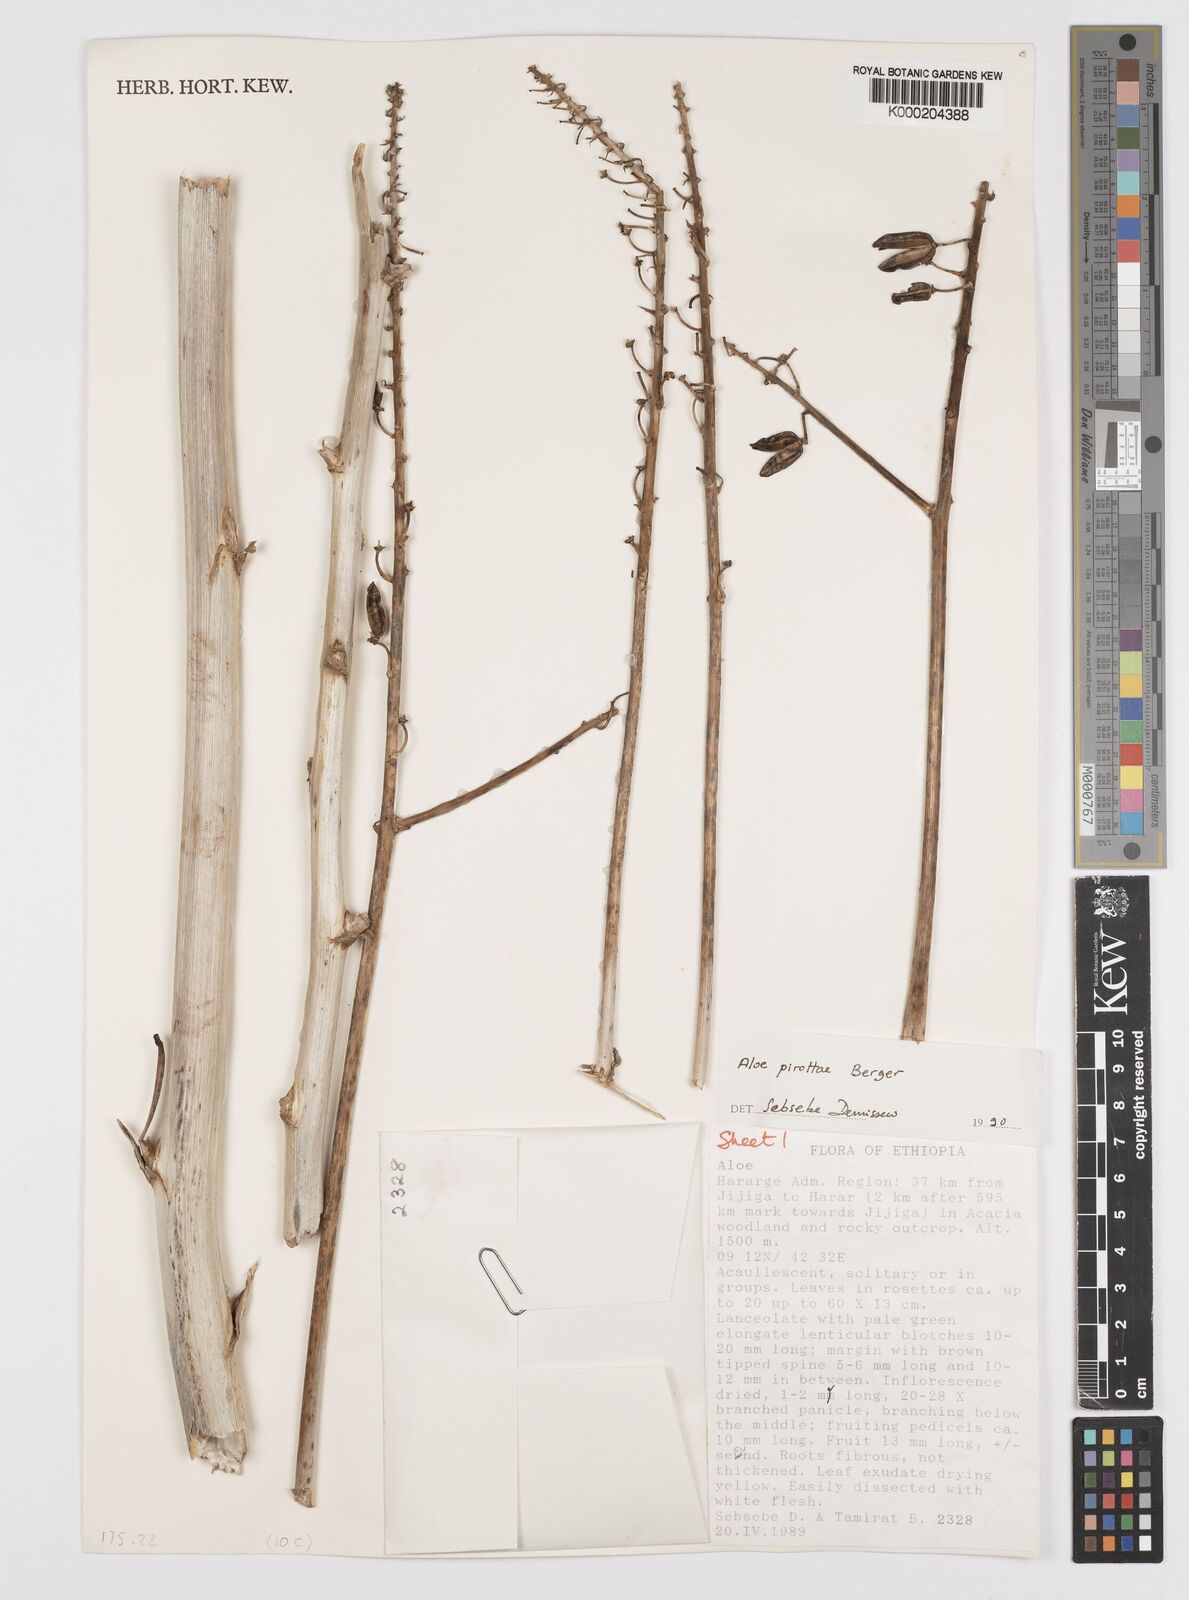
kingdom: Plantae
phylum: Tracheophyta
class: Liliopsida
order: Asparagales
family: Asphodelaceae
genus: Aloe
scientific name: Aloe pirottae
